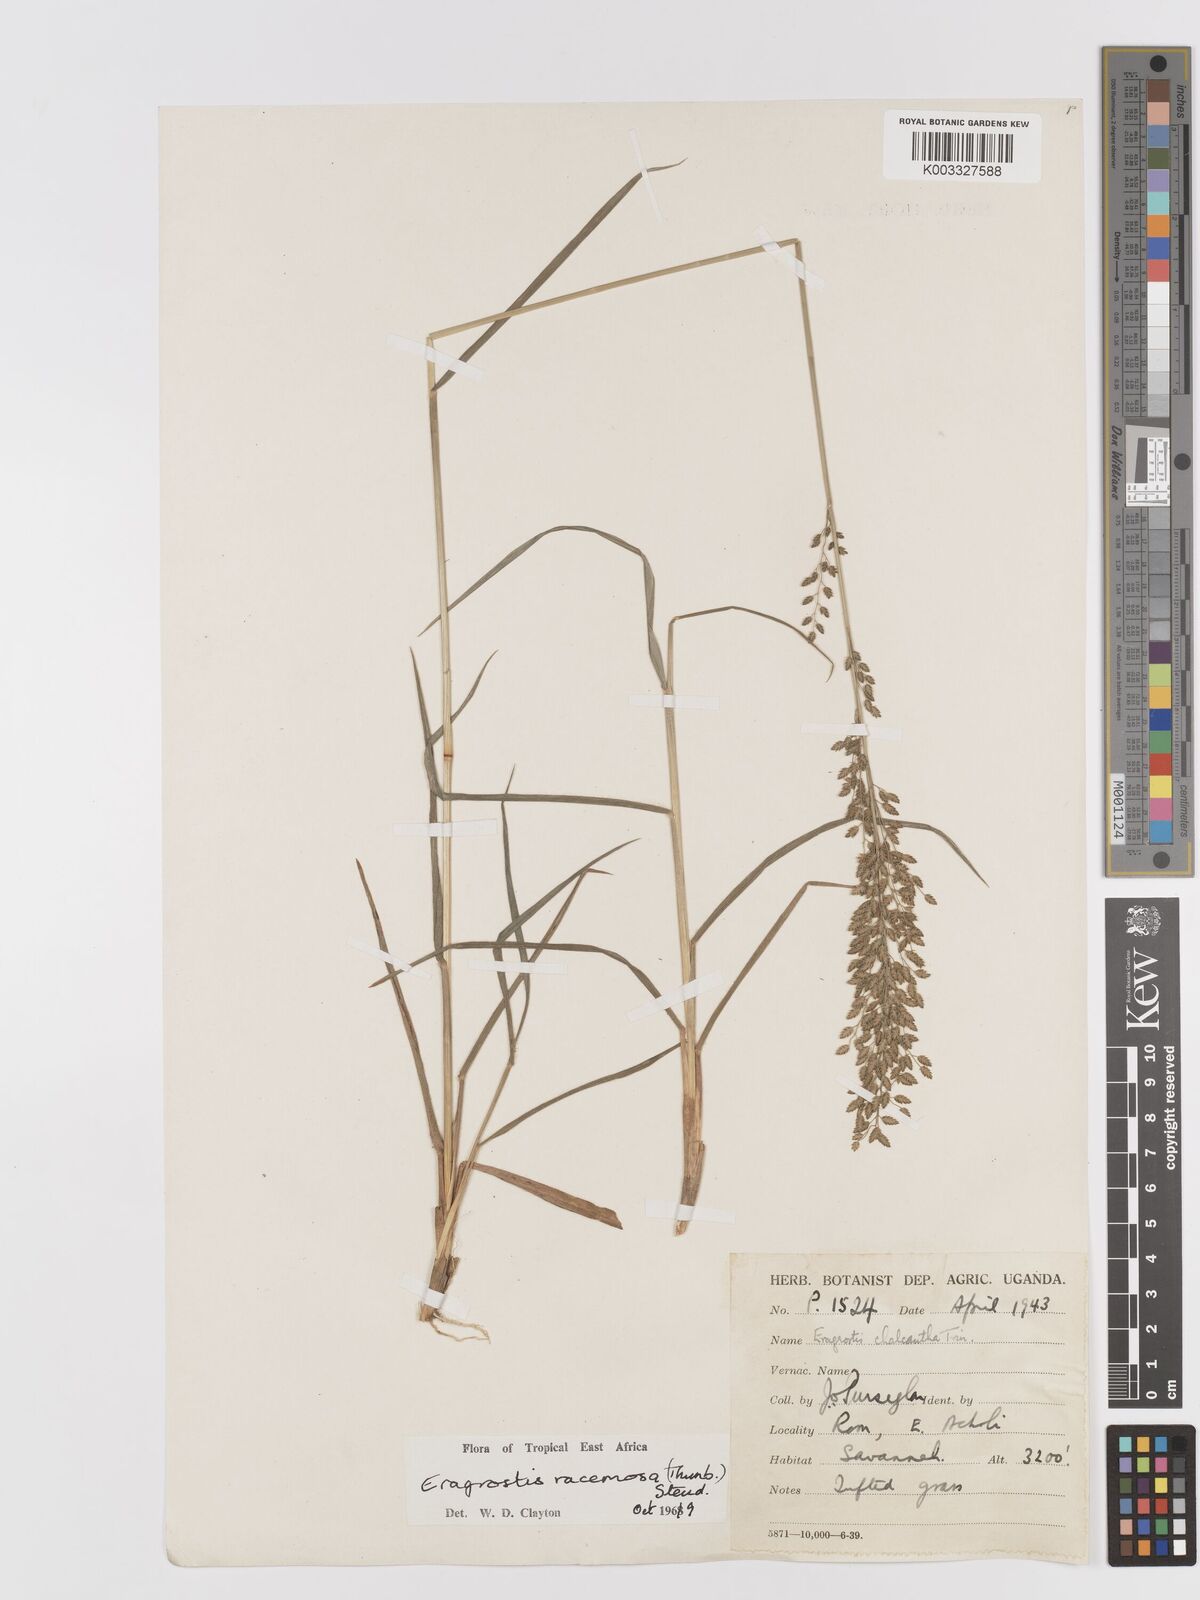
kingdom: Plantae
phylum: Tracheophyta
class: Liliopsida
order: Poales
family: Poaceae
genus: Eragrostis
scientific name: Eragrostis racemosa
